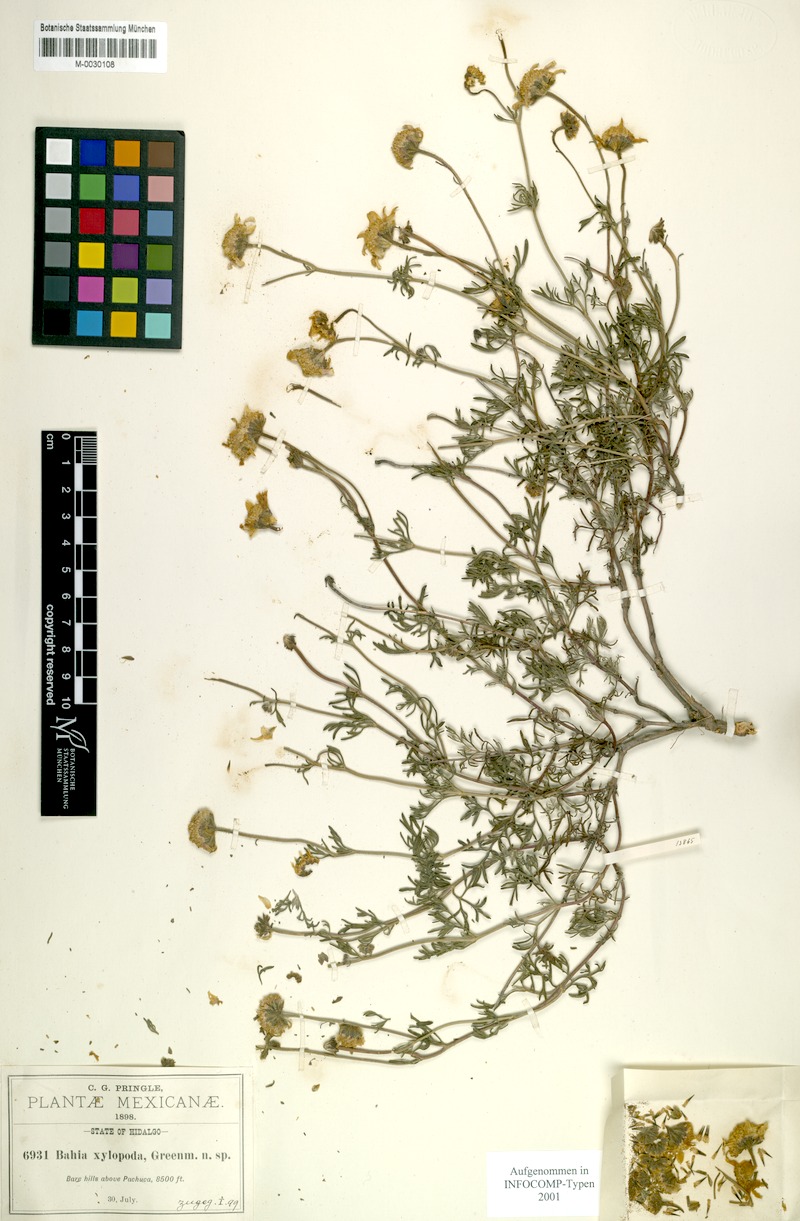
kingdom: Plantae
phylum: Tracheophyta
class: Magnoliopsida
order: Asterales
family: Asteraceae
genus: Picradeniopsis
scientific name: Picradeniopsis xylopoda
